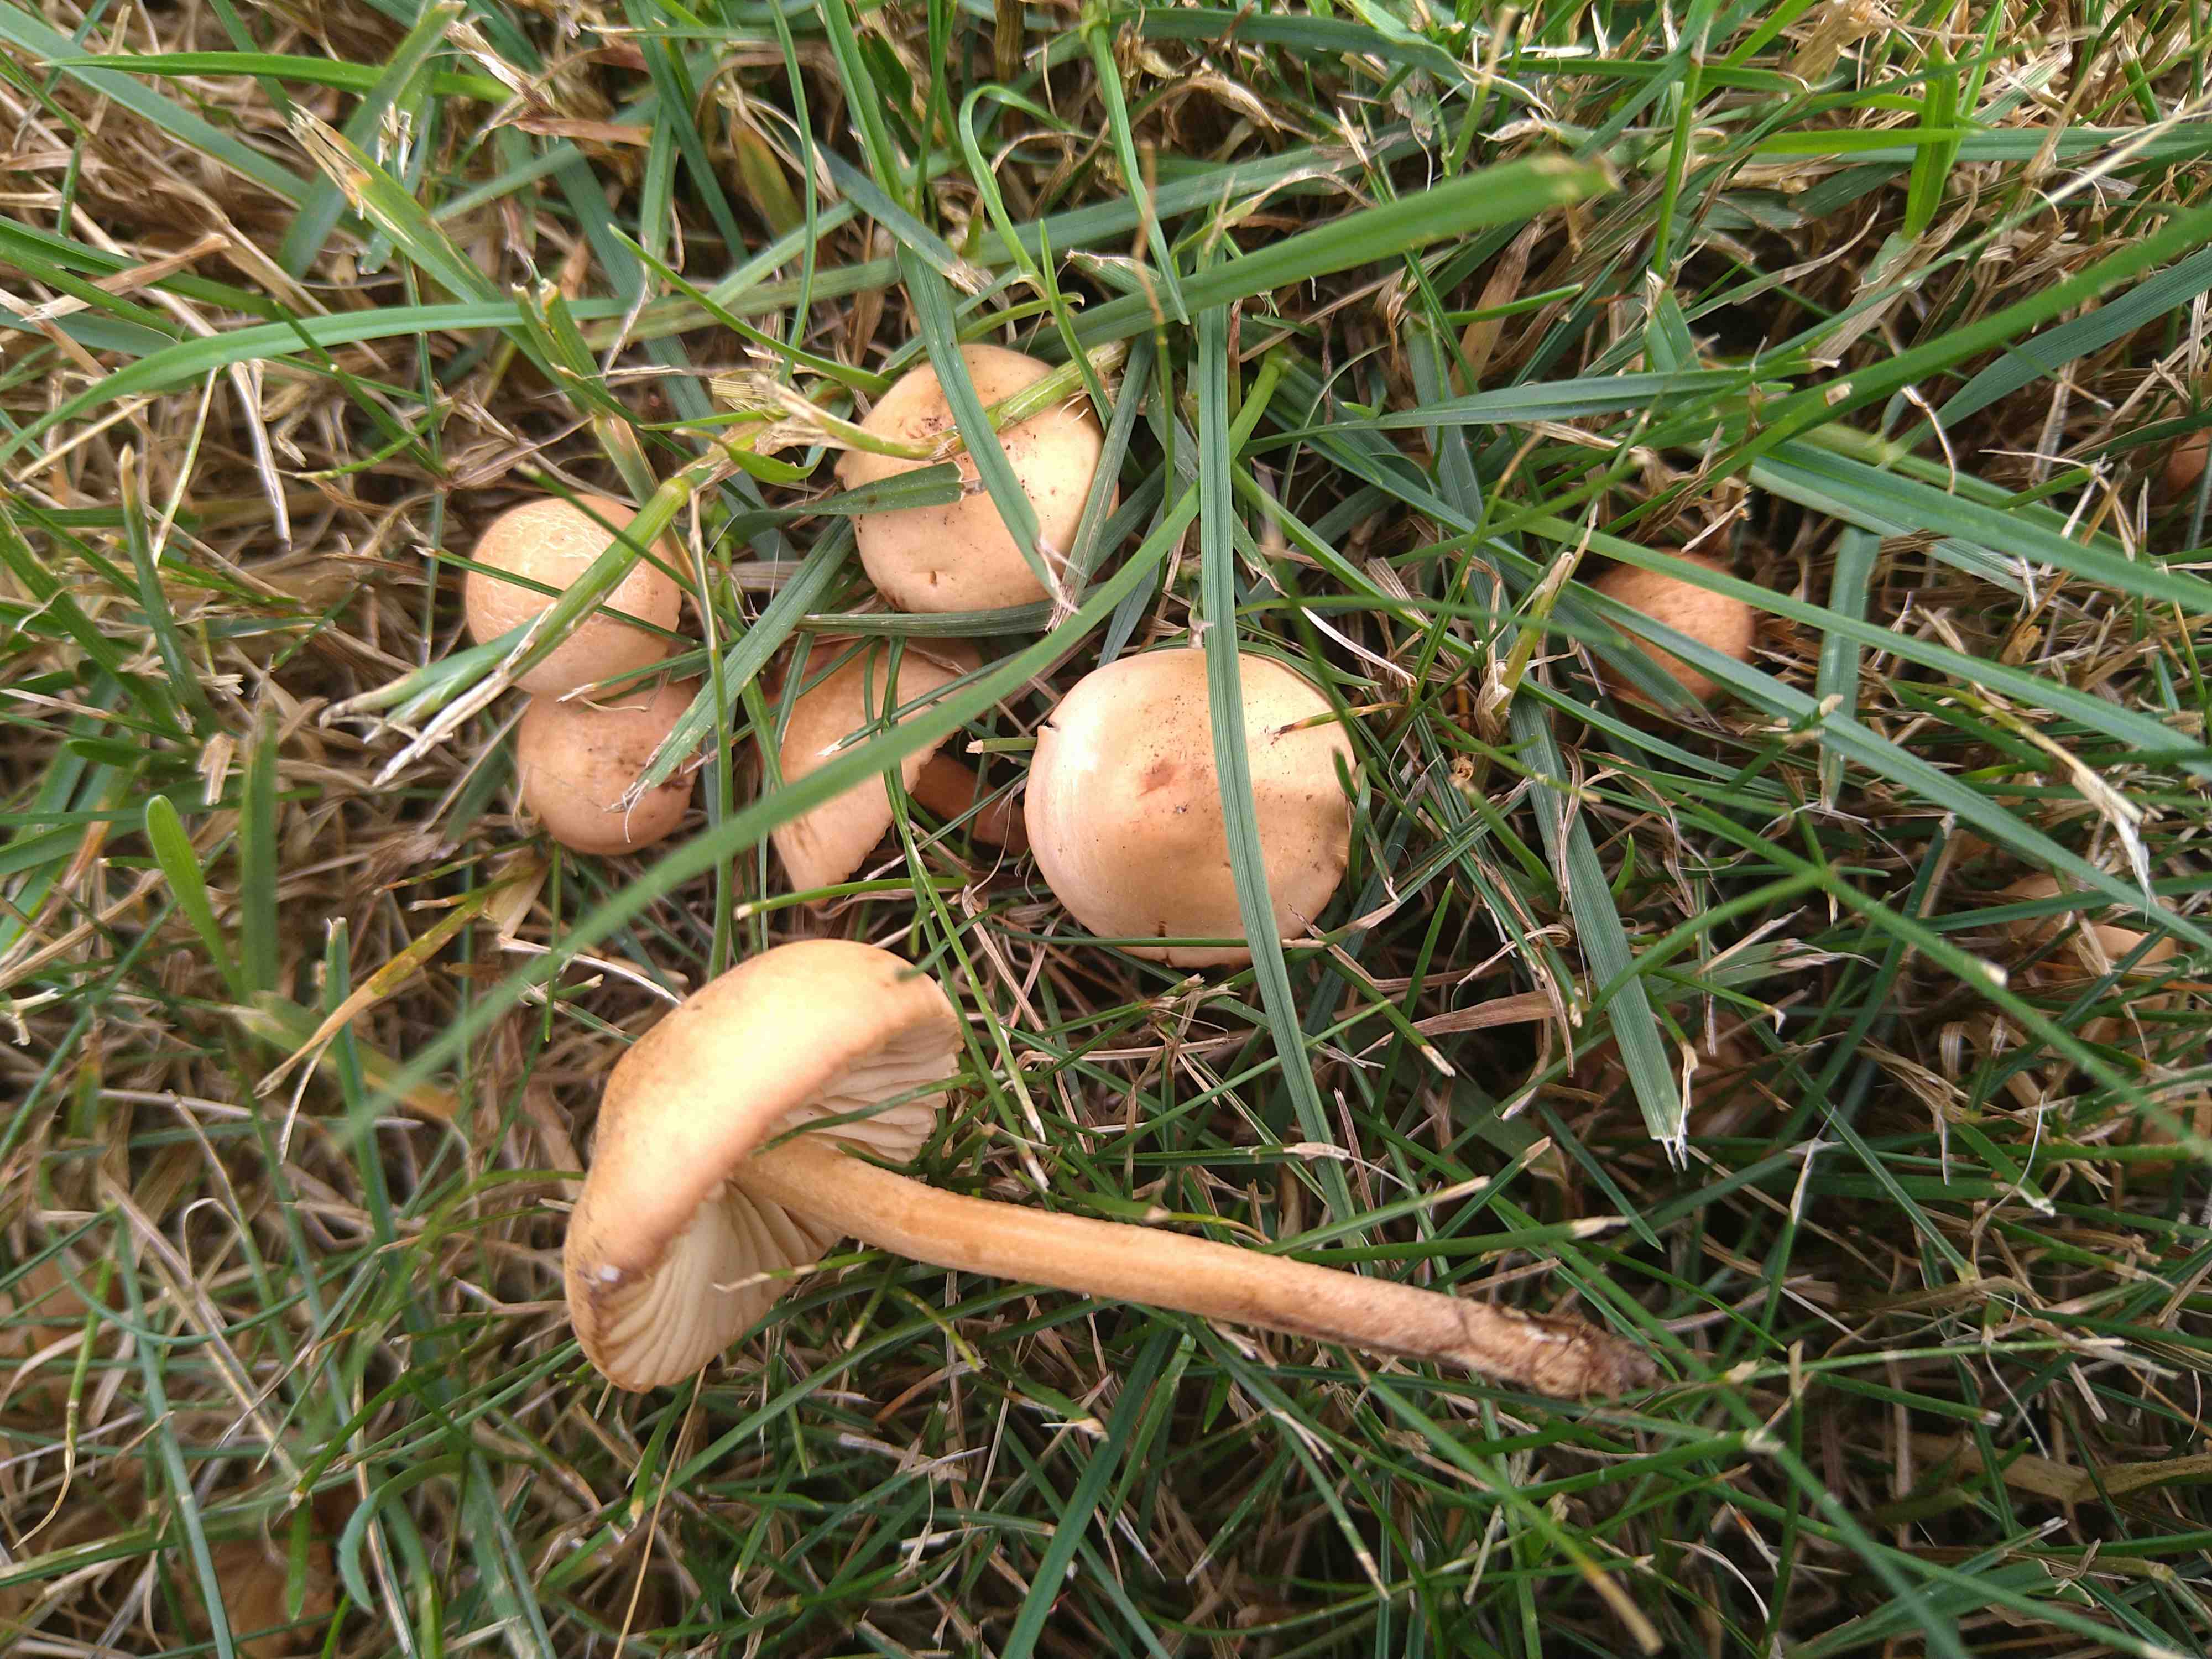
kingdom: Fungi
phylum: Basidiomycota
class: Agaricomycetes
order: Agaricales
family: Marasmiaceae
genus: Marasmius
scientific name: Marasmius oreades
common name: elledans-bruskhat
